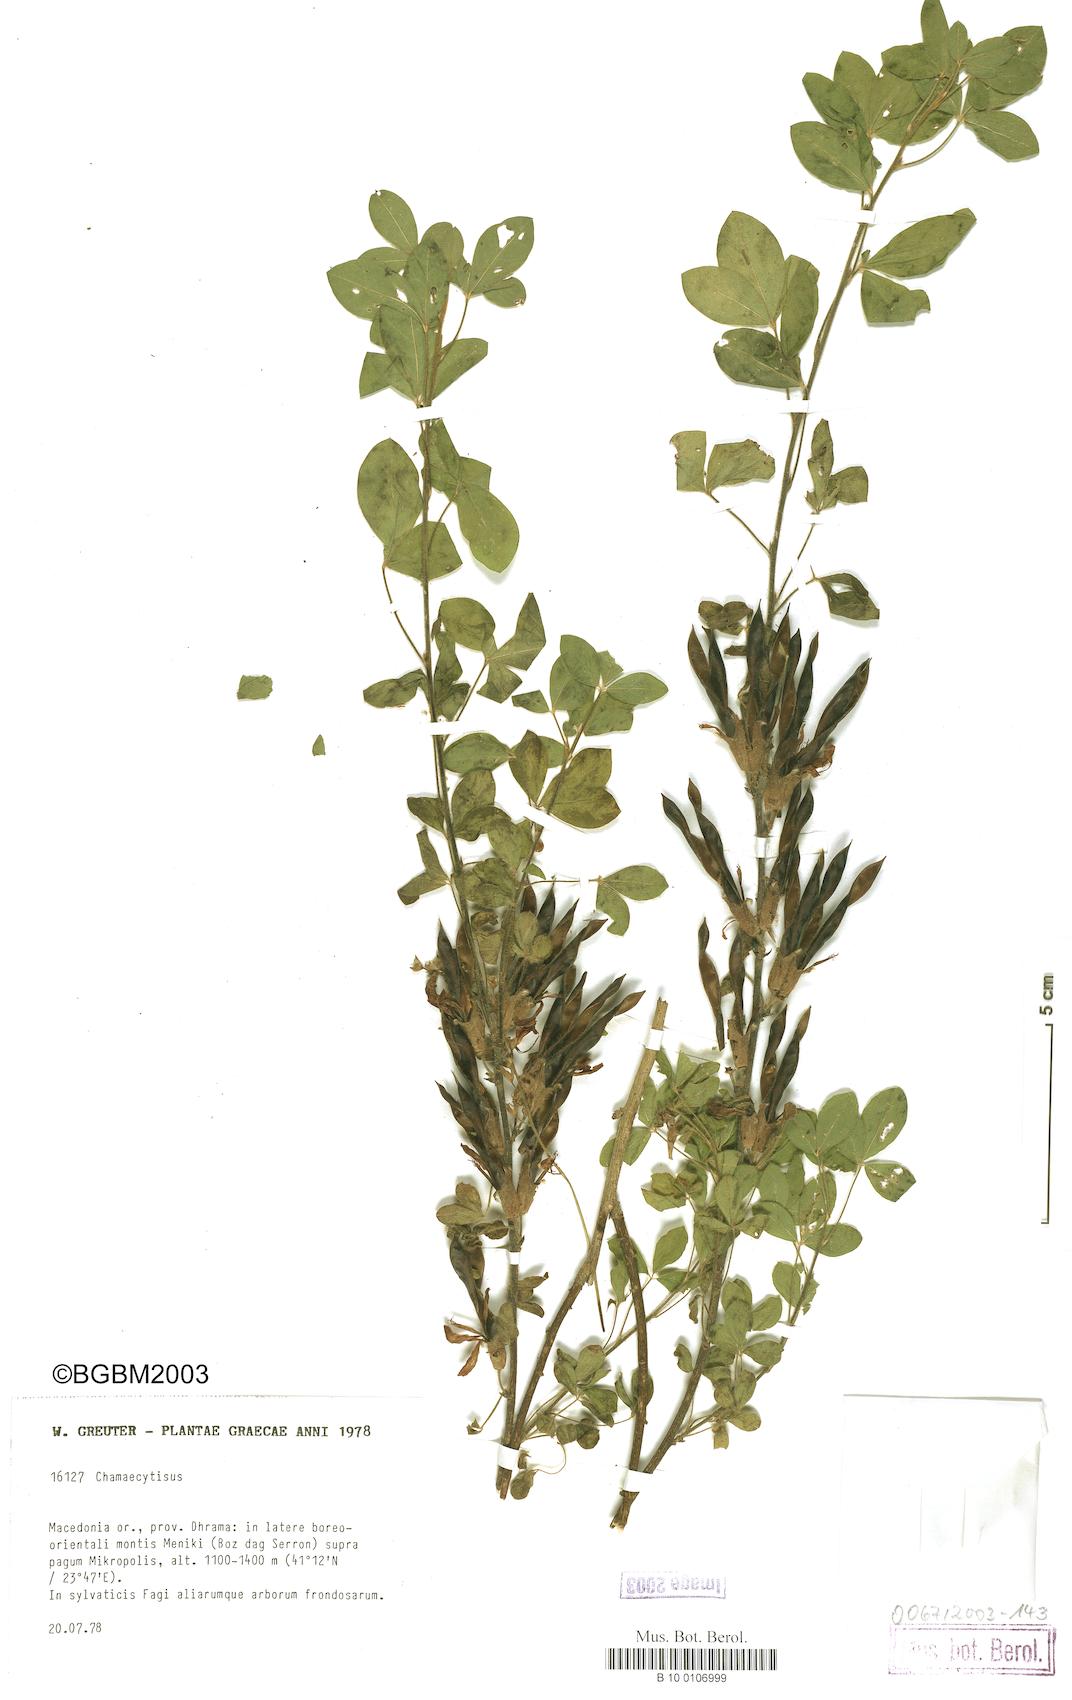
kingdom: Plantae
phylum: Tracheophyta
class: Magnoliopsida
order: Fabales
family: Fabaceae
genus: Chamaecytisus
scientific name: Chamaecytisus
